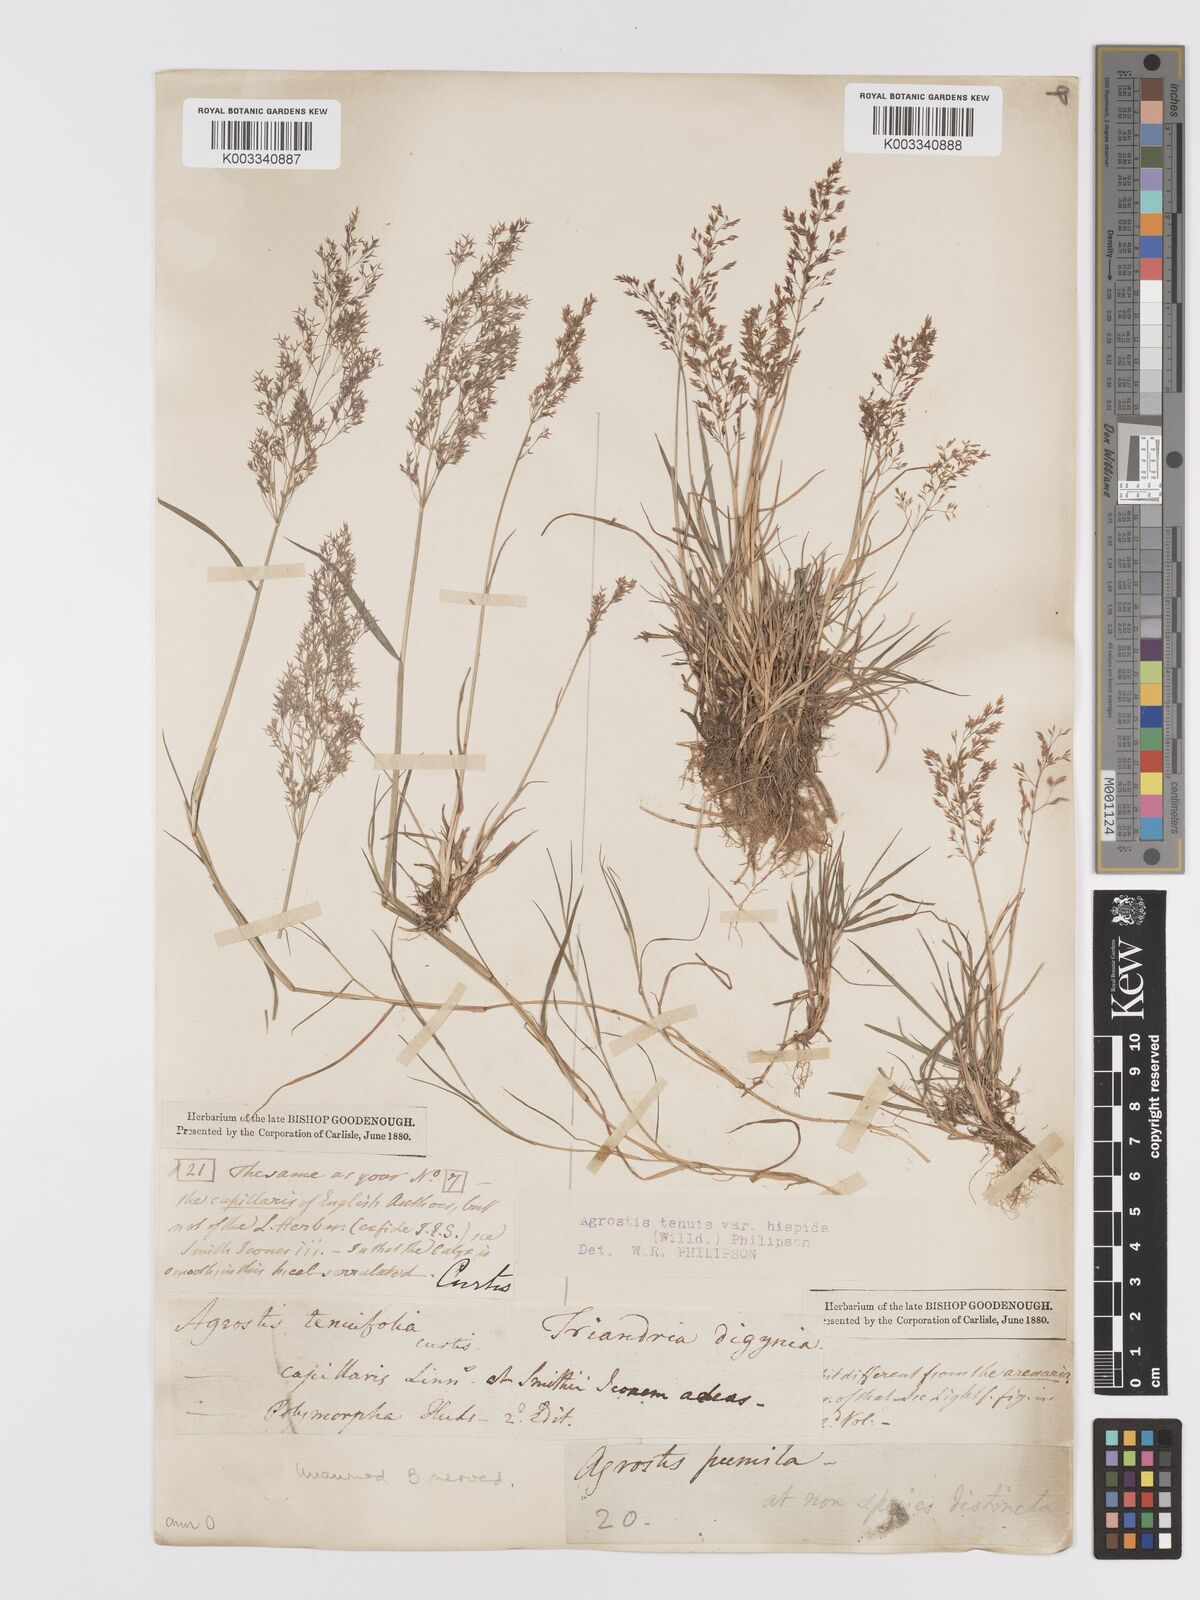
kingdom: Plantae
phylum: Tracheophyta
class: Liliopsida
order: Poales
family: Poaceae
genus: Agrostis
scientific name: Agrostis capillaris
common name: Colonial bentgrass
